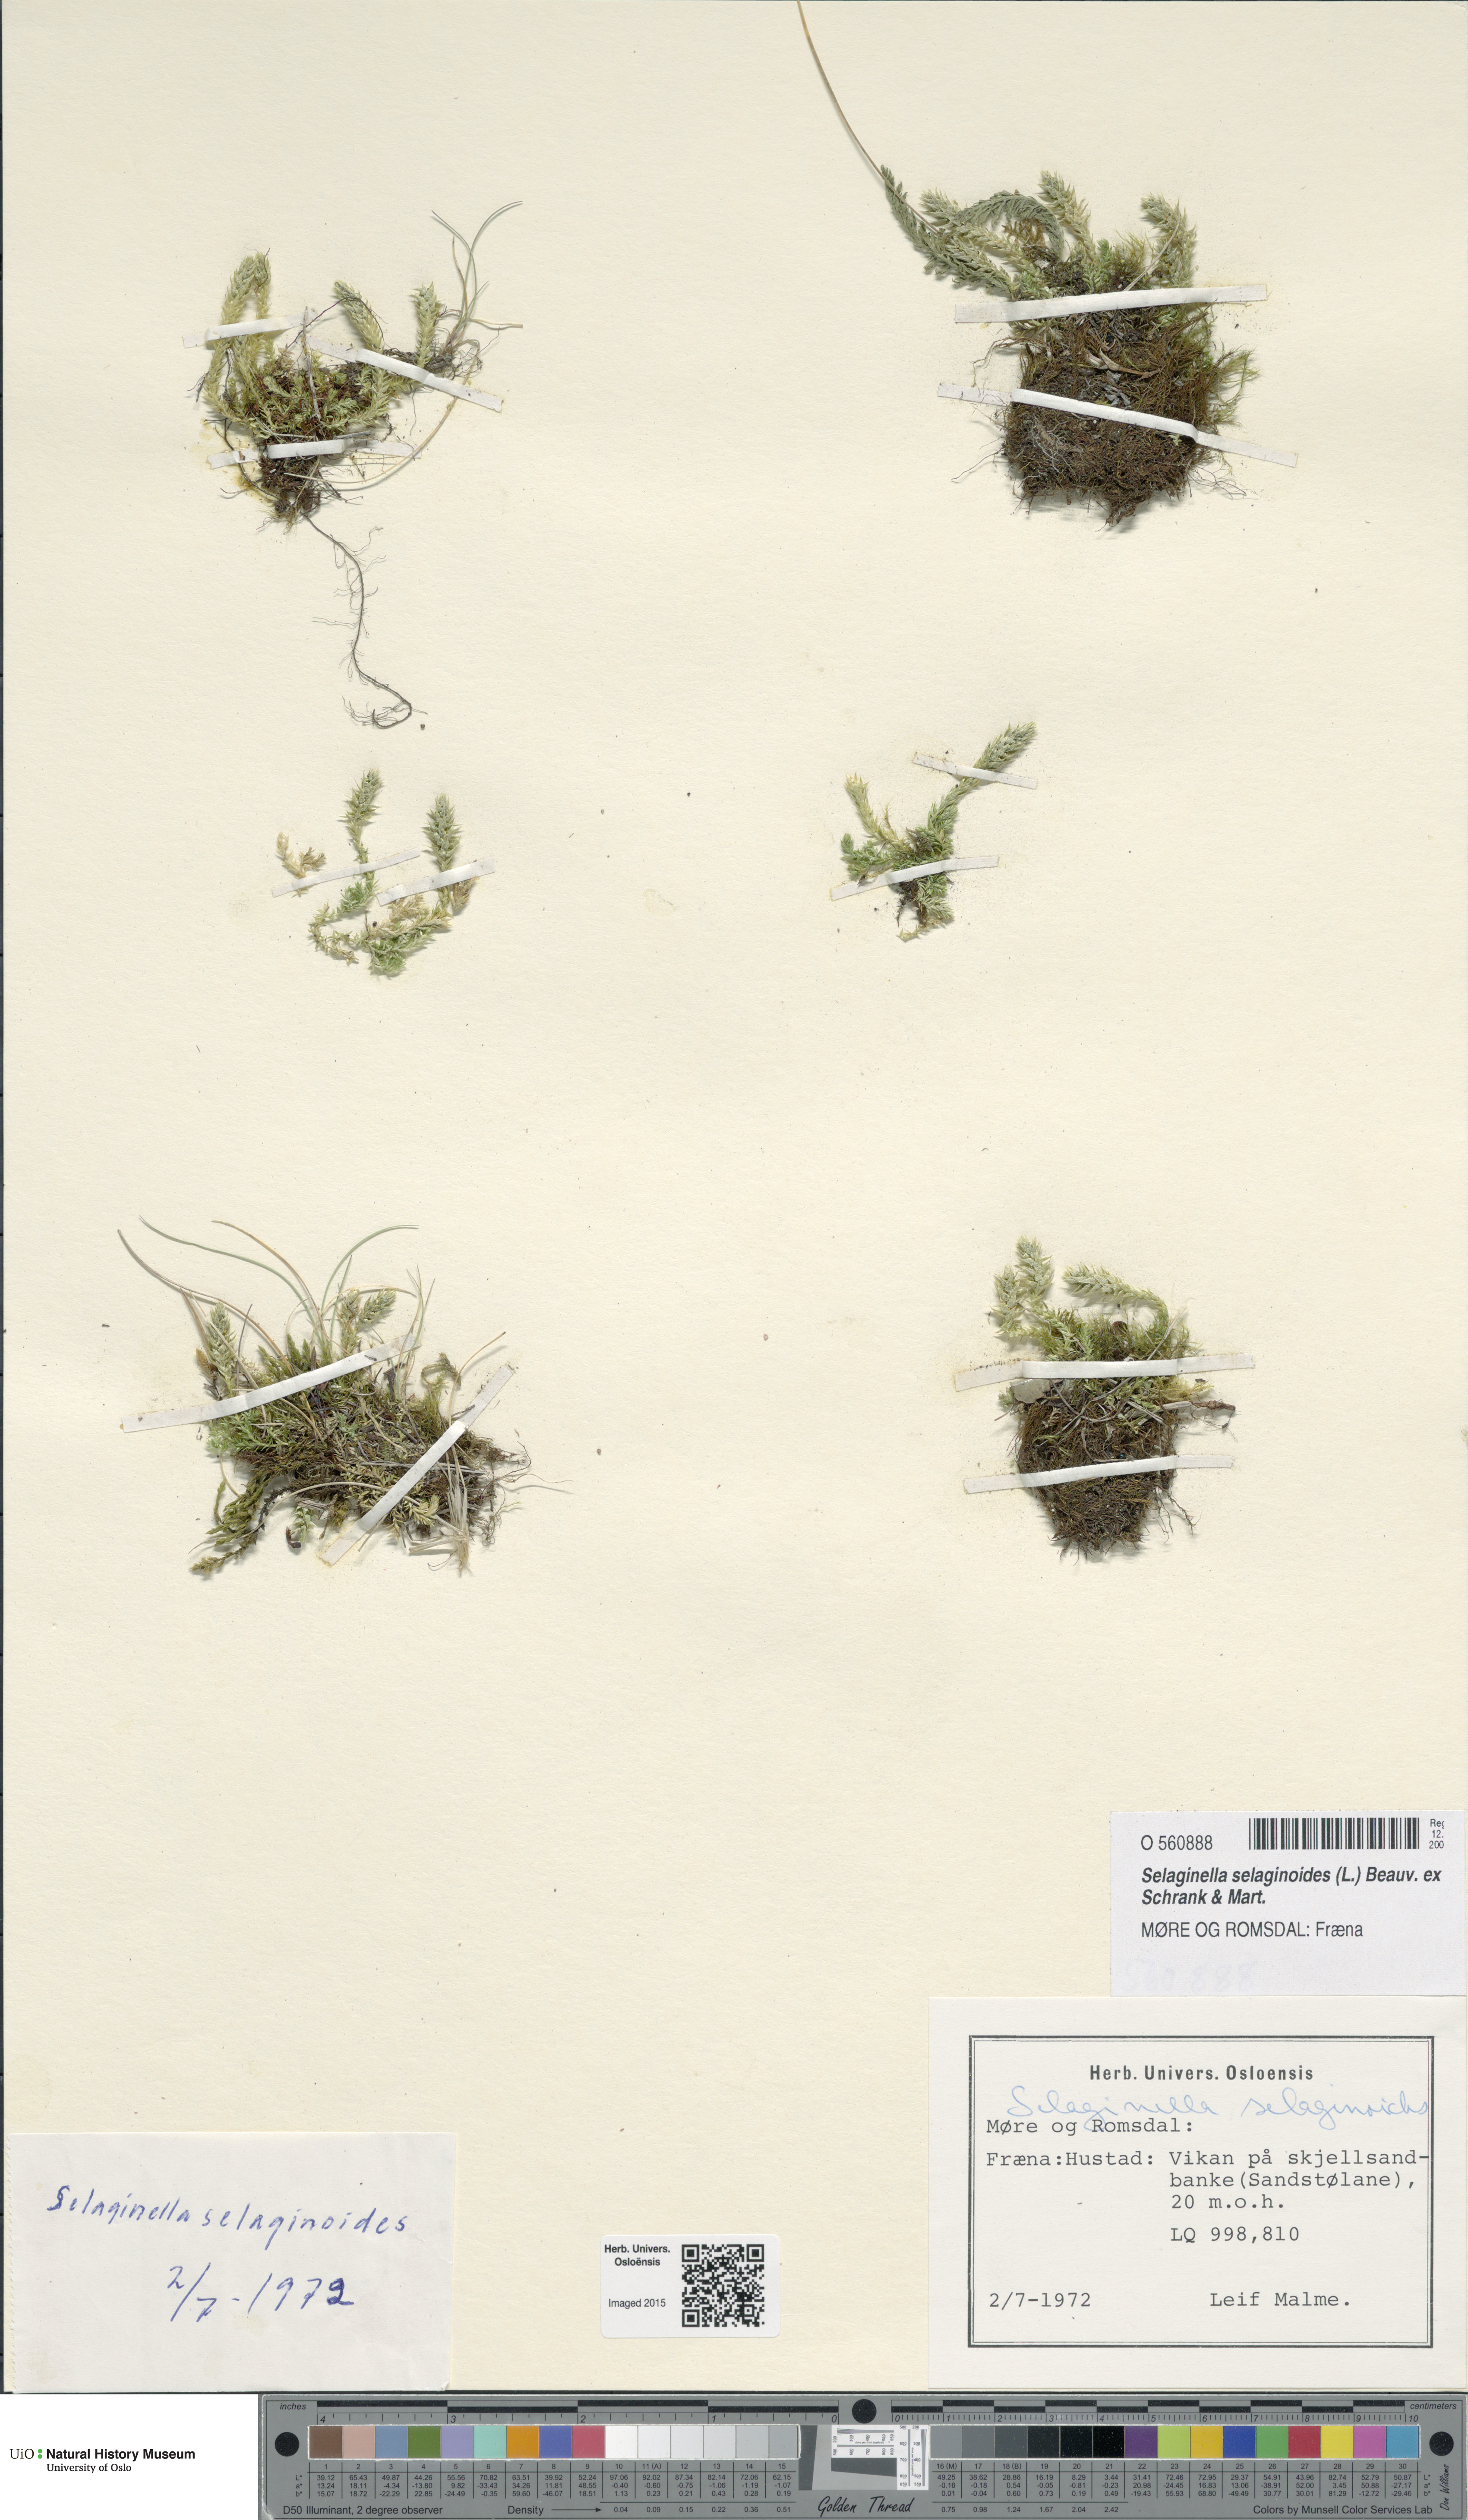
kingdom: Plantae
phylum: Tracheophyta
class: Lycopodiopsida
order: Selaginellales
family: Selaginellaceae
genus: Selaginella
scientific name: Selaginella selaginoides
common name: Prickly mountain-moss
